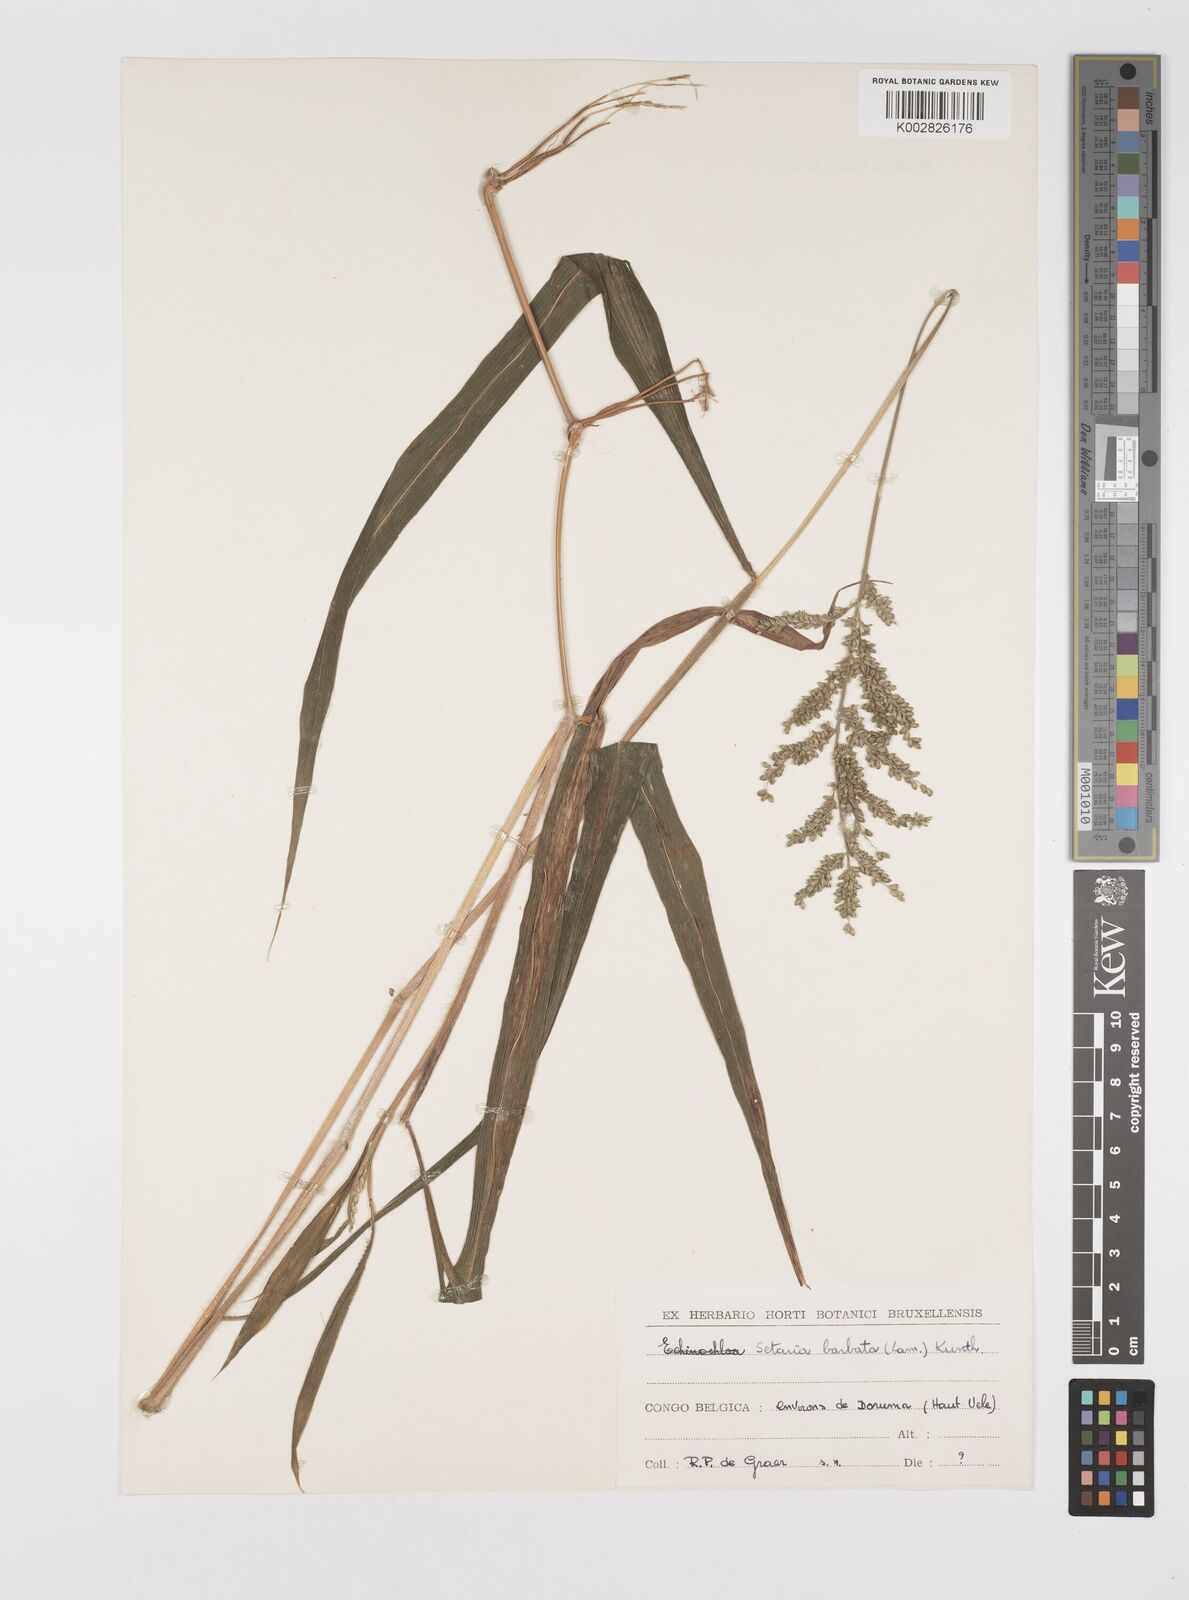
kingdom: Plantae
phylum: Tracheophyta
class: Liliopsida
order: Poales
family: Poaceae
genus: Setaria
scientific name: Setaria barbata
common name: East indian bristlegrass
